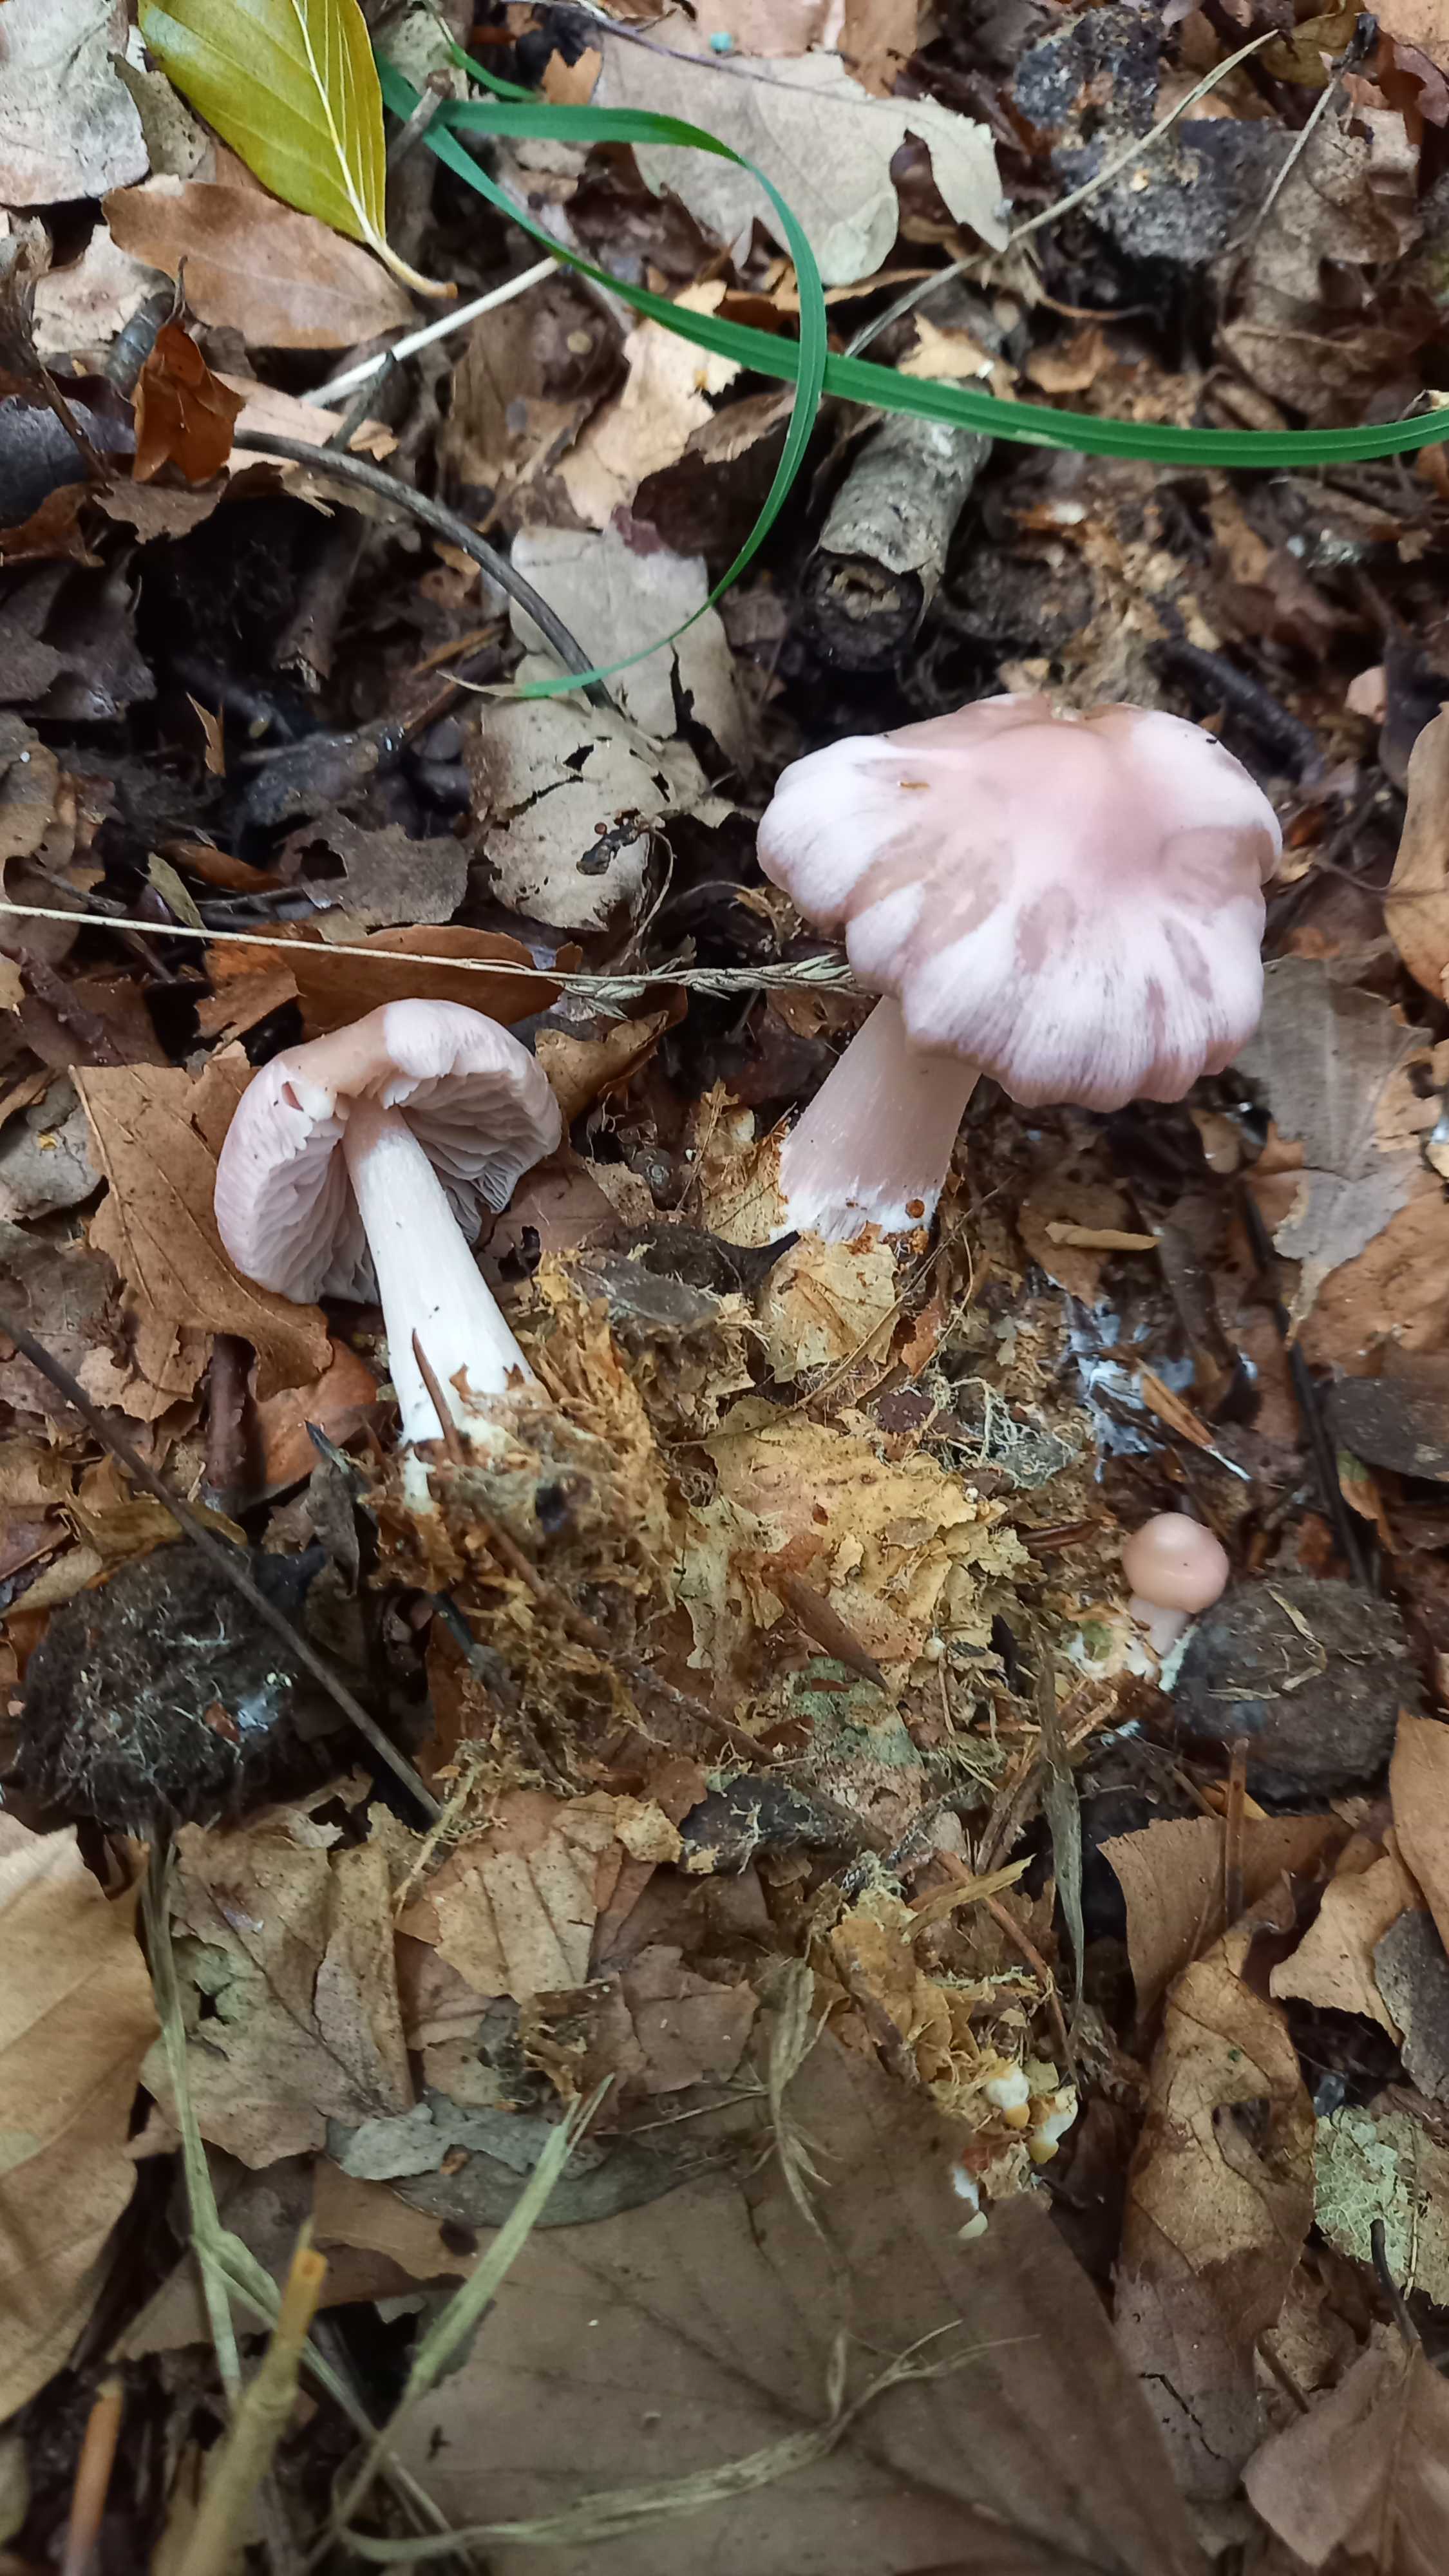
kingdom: Fungi
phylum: Basidiomycota
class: Agaricomycetes
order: Agaricales
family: Mycenaceae
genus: Mycena
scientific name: Mycena rosea
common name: rosa huesvamp
